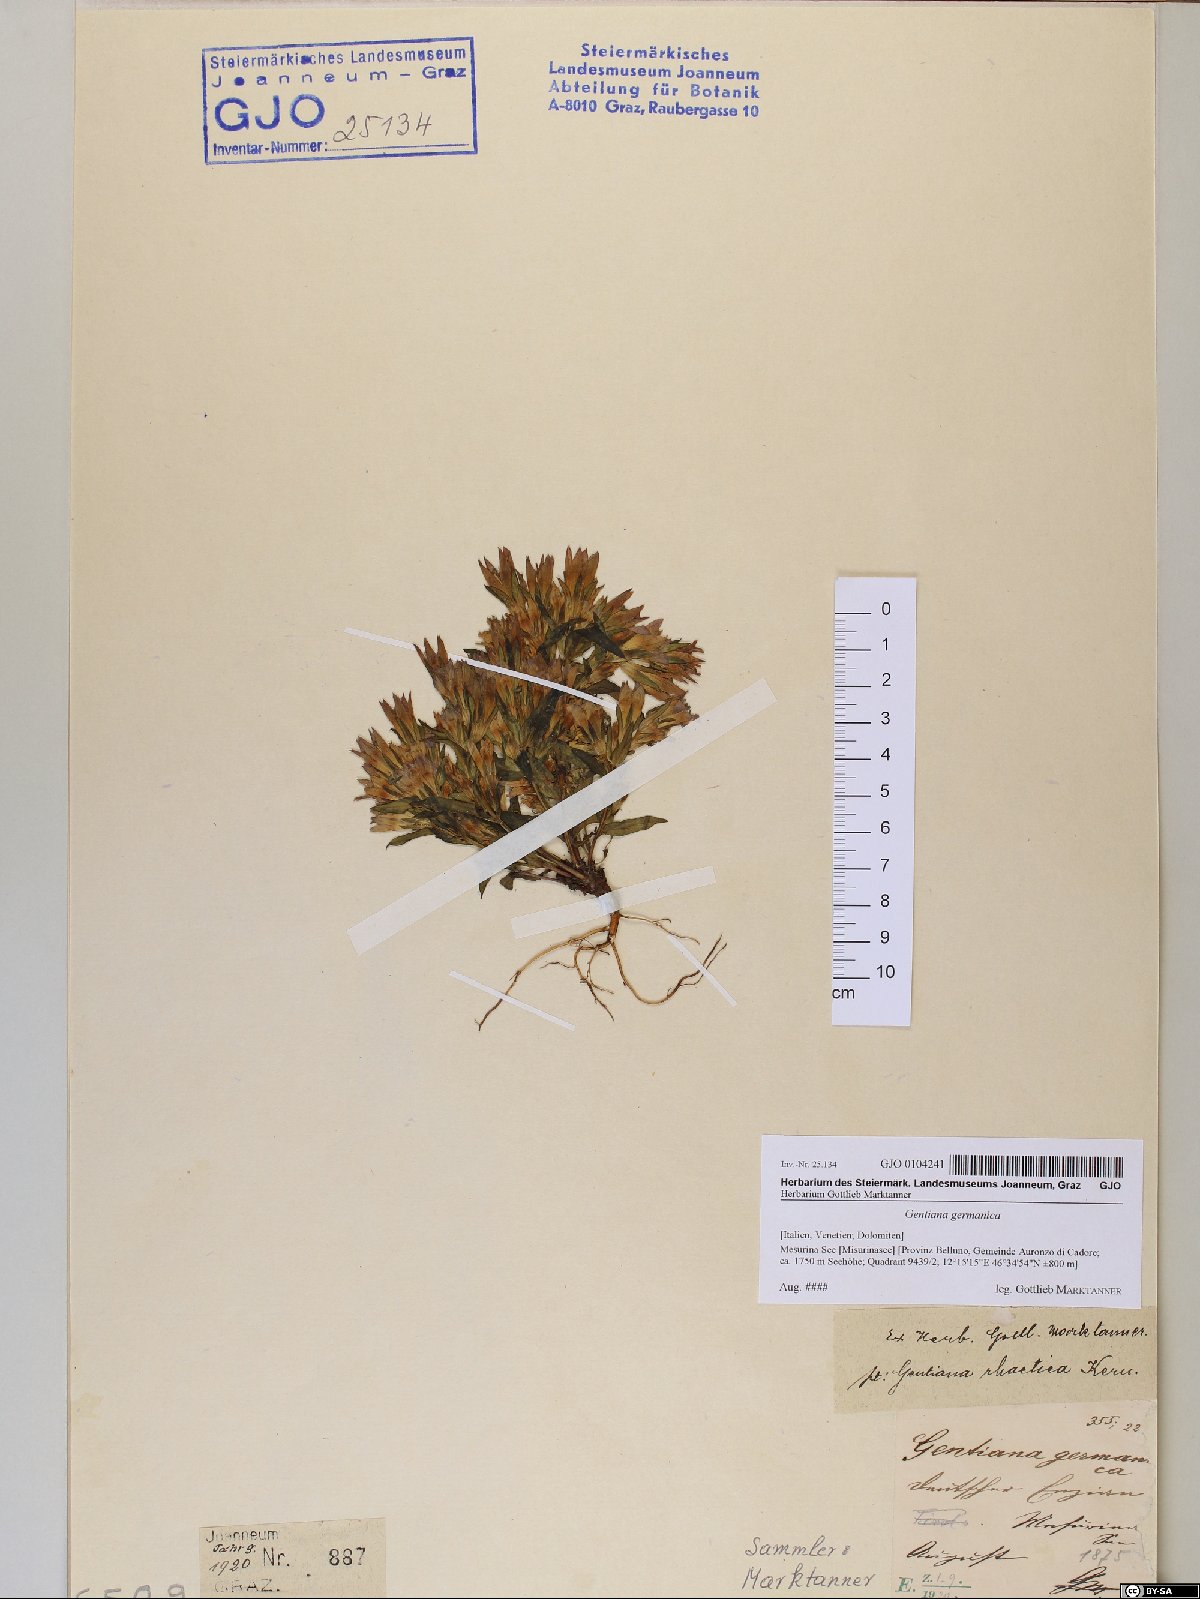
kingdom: Plantae
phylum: Tracheophyta
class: Magnoliopsida
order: Gentianales
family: Gentianaceae
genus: Gentianella
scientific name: Gentianella germanica
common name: Chiltern-gentian
